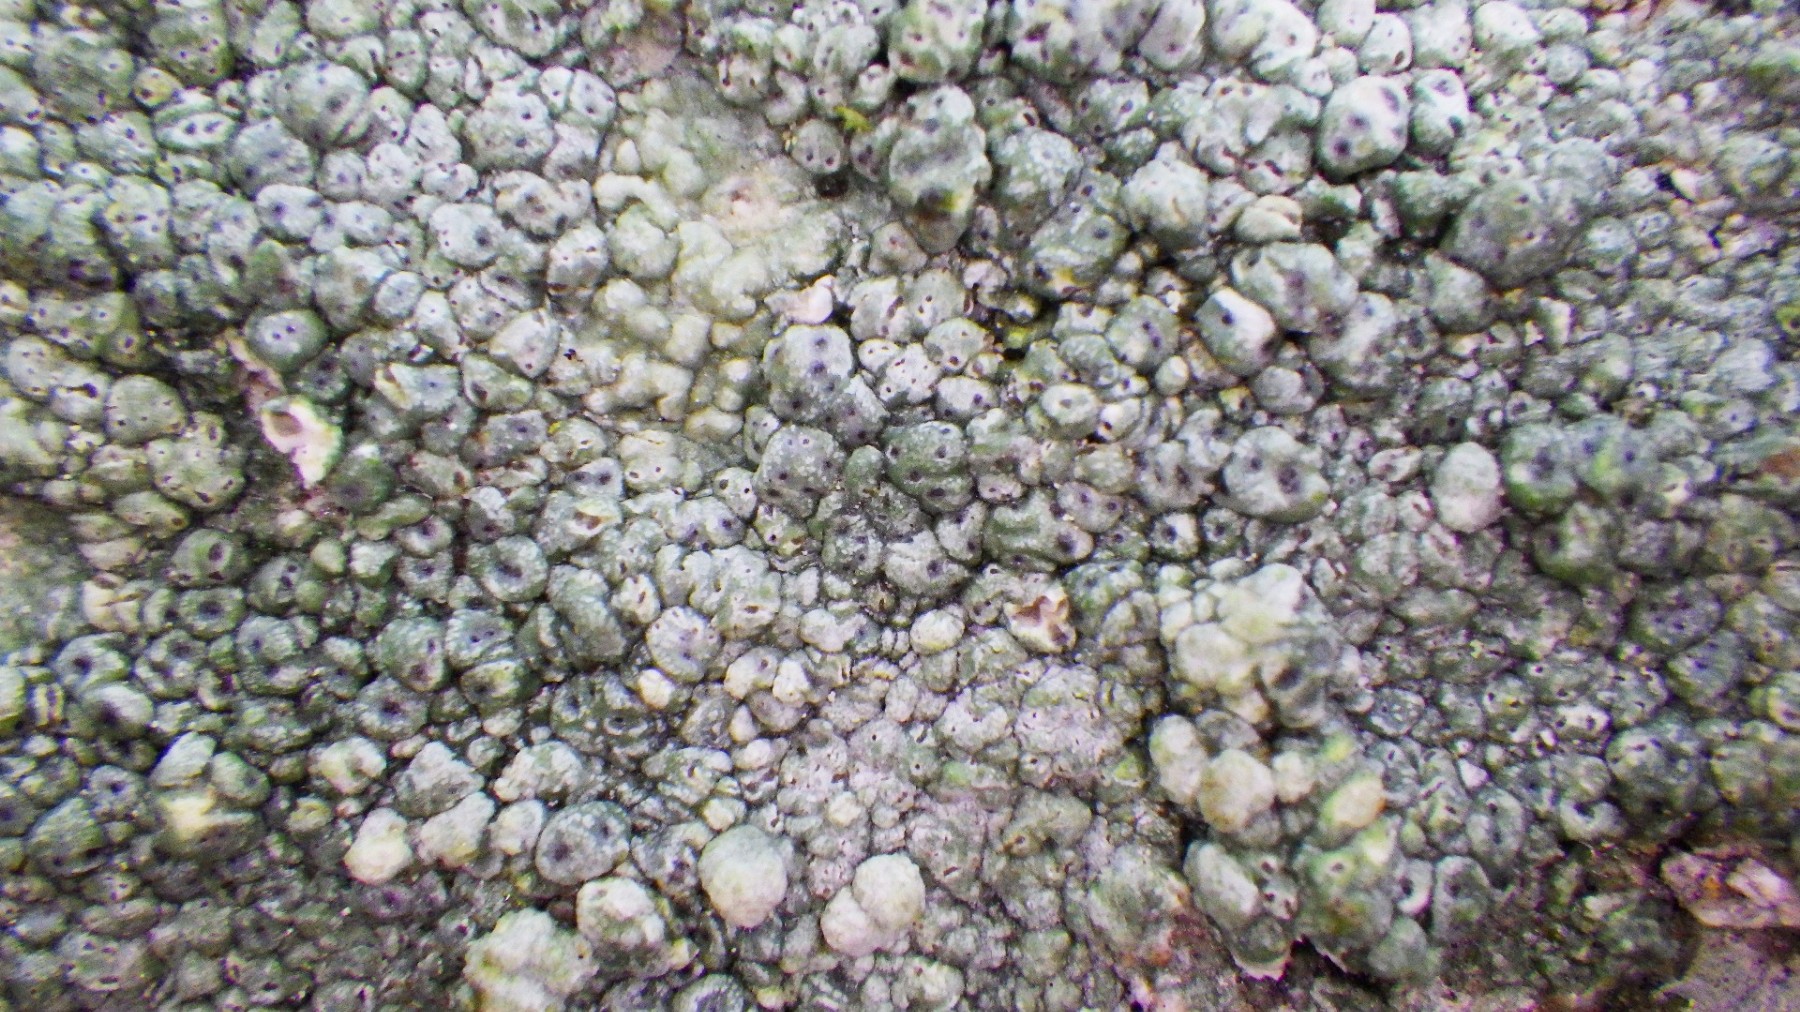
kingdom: Fungi
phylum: Ascomycota
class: Lecanoromycetes
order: Pertusariales
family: Pertusariaceae
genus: Pertusaria
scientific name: Pertusaria pertusa
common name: almindelig prikvortelav
